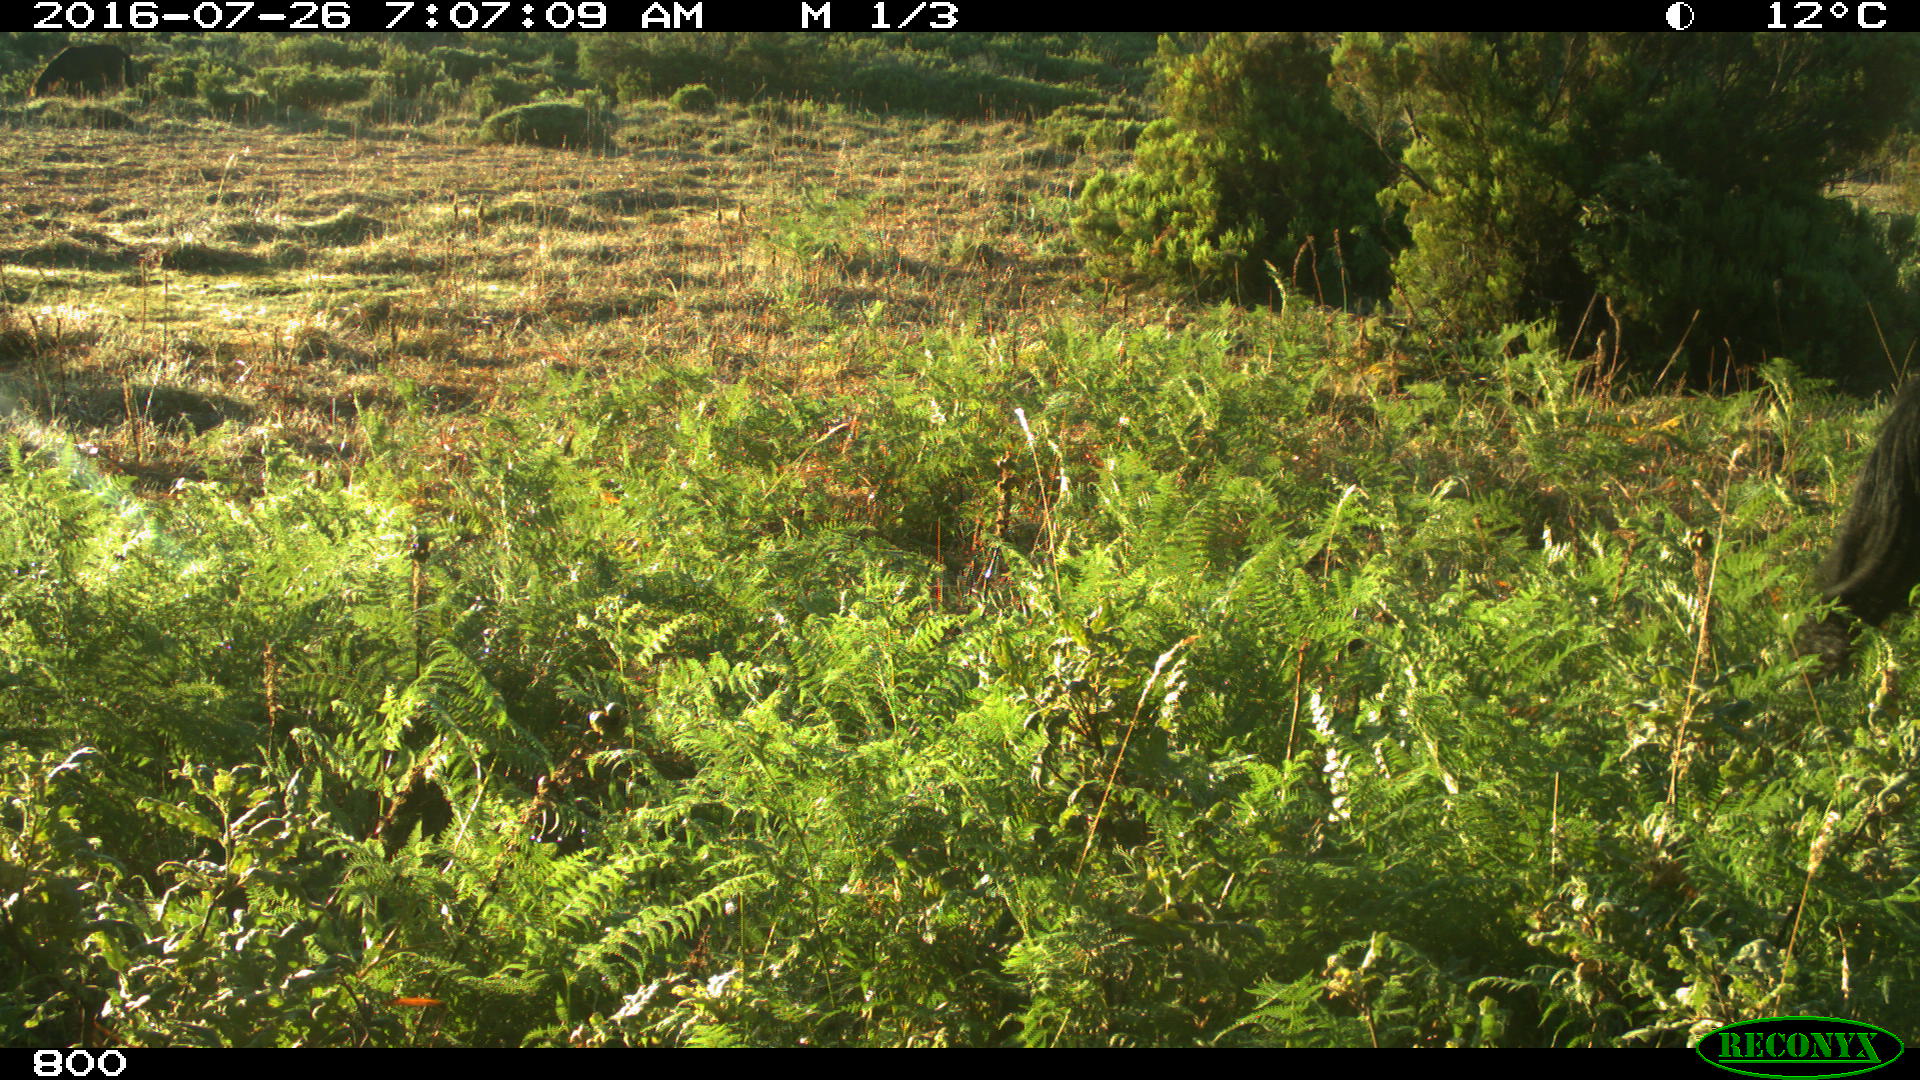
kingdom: Animalia
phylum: Chordata
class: Mammalia
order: Perissodactyla
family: Equidae
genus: Equus
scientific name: Equus caballus
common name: Horse
